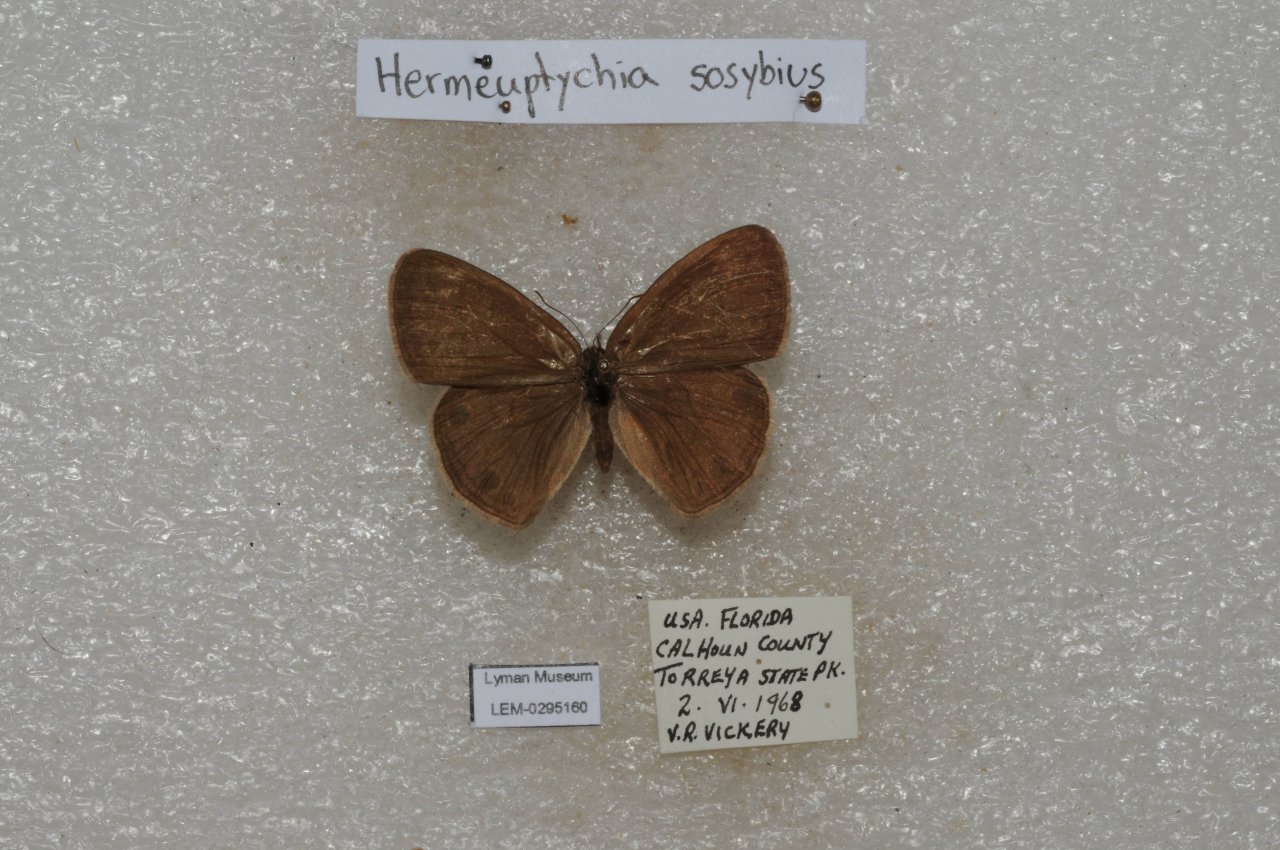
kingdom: Animalia
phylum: Arthropoda
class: Insecta
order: Lepidoptera
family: Nymphalidae
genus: Hermeuptychia
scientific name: Hermeuptychia hermes
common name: Carolina Satyr
